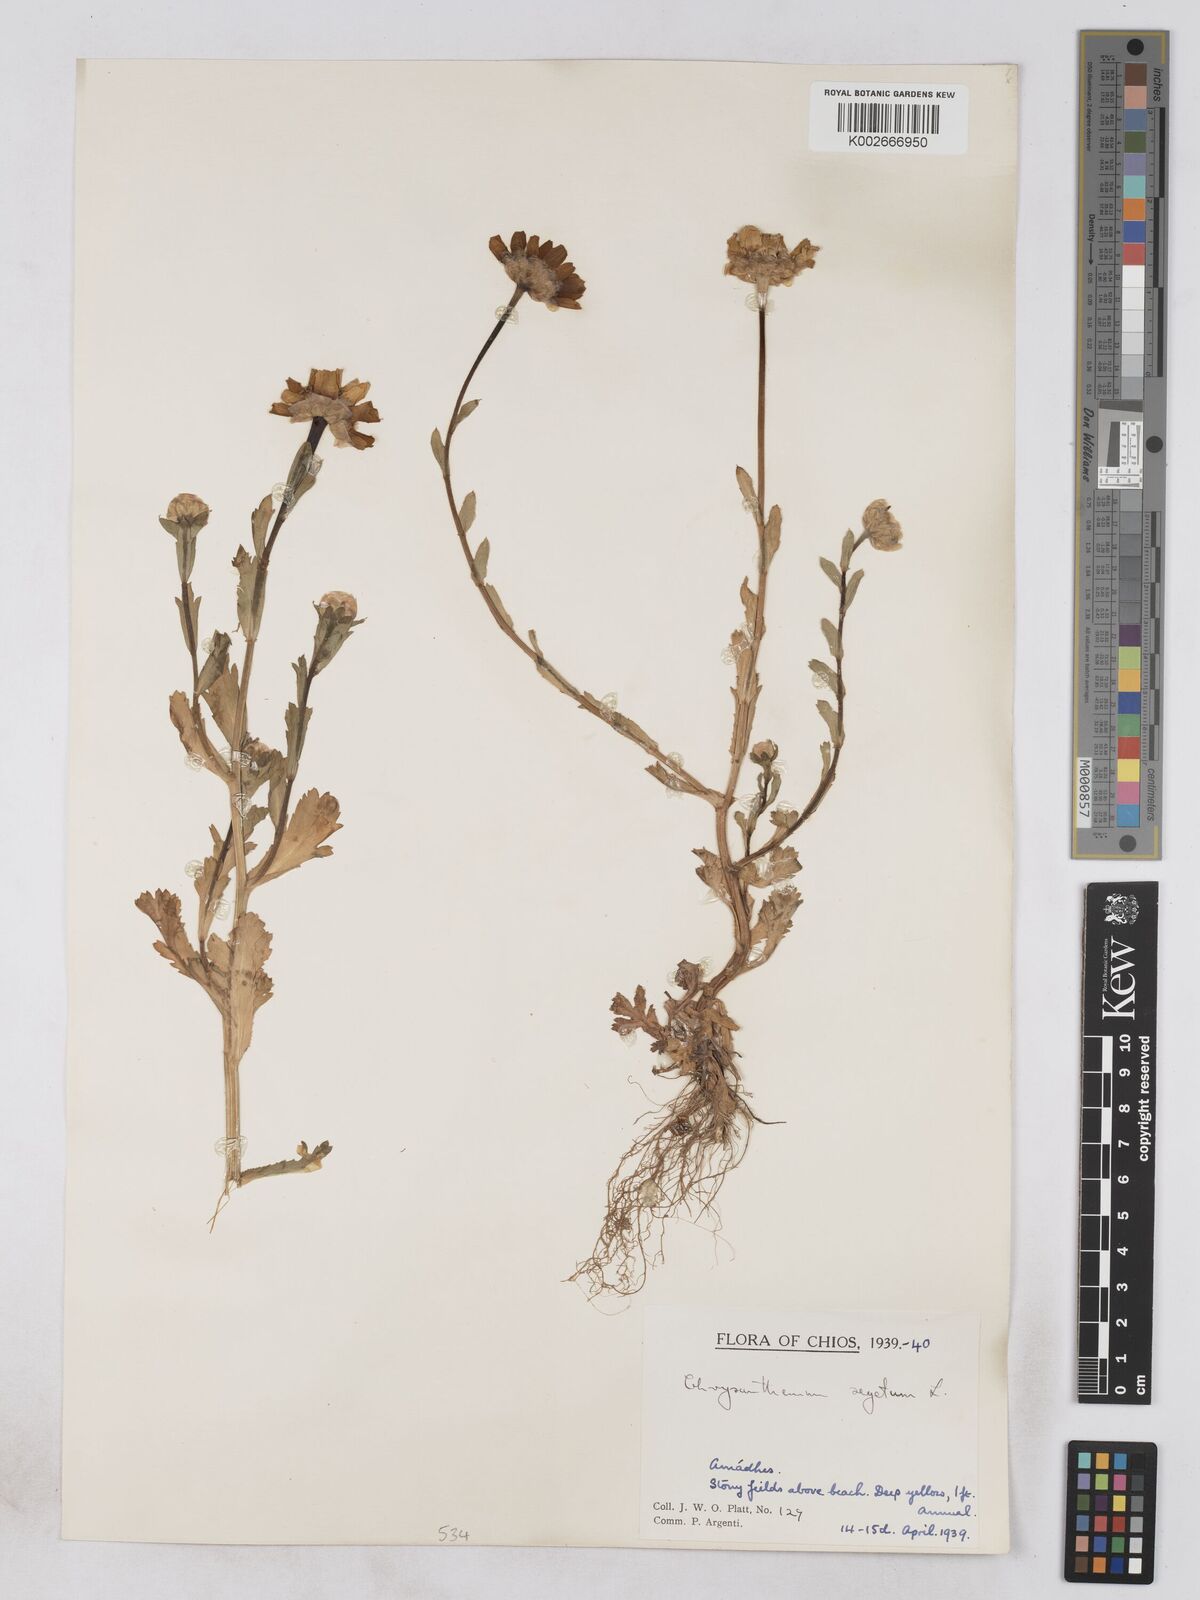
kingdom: Plantae
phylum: Tracheophyta
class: Magnoliopsida
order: Asterales
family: Asteraceae
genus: Glebionis
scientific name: Glebionis segetum
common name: Corndaisy
